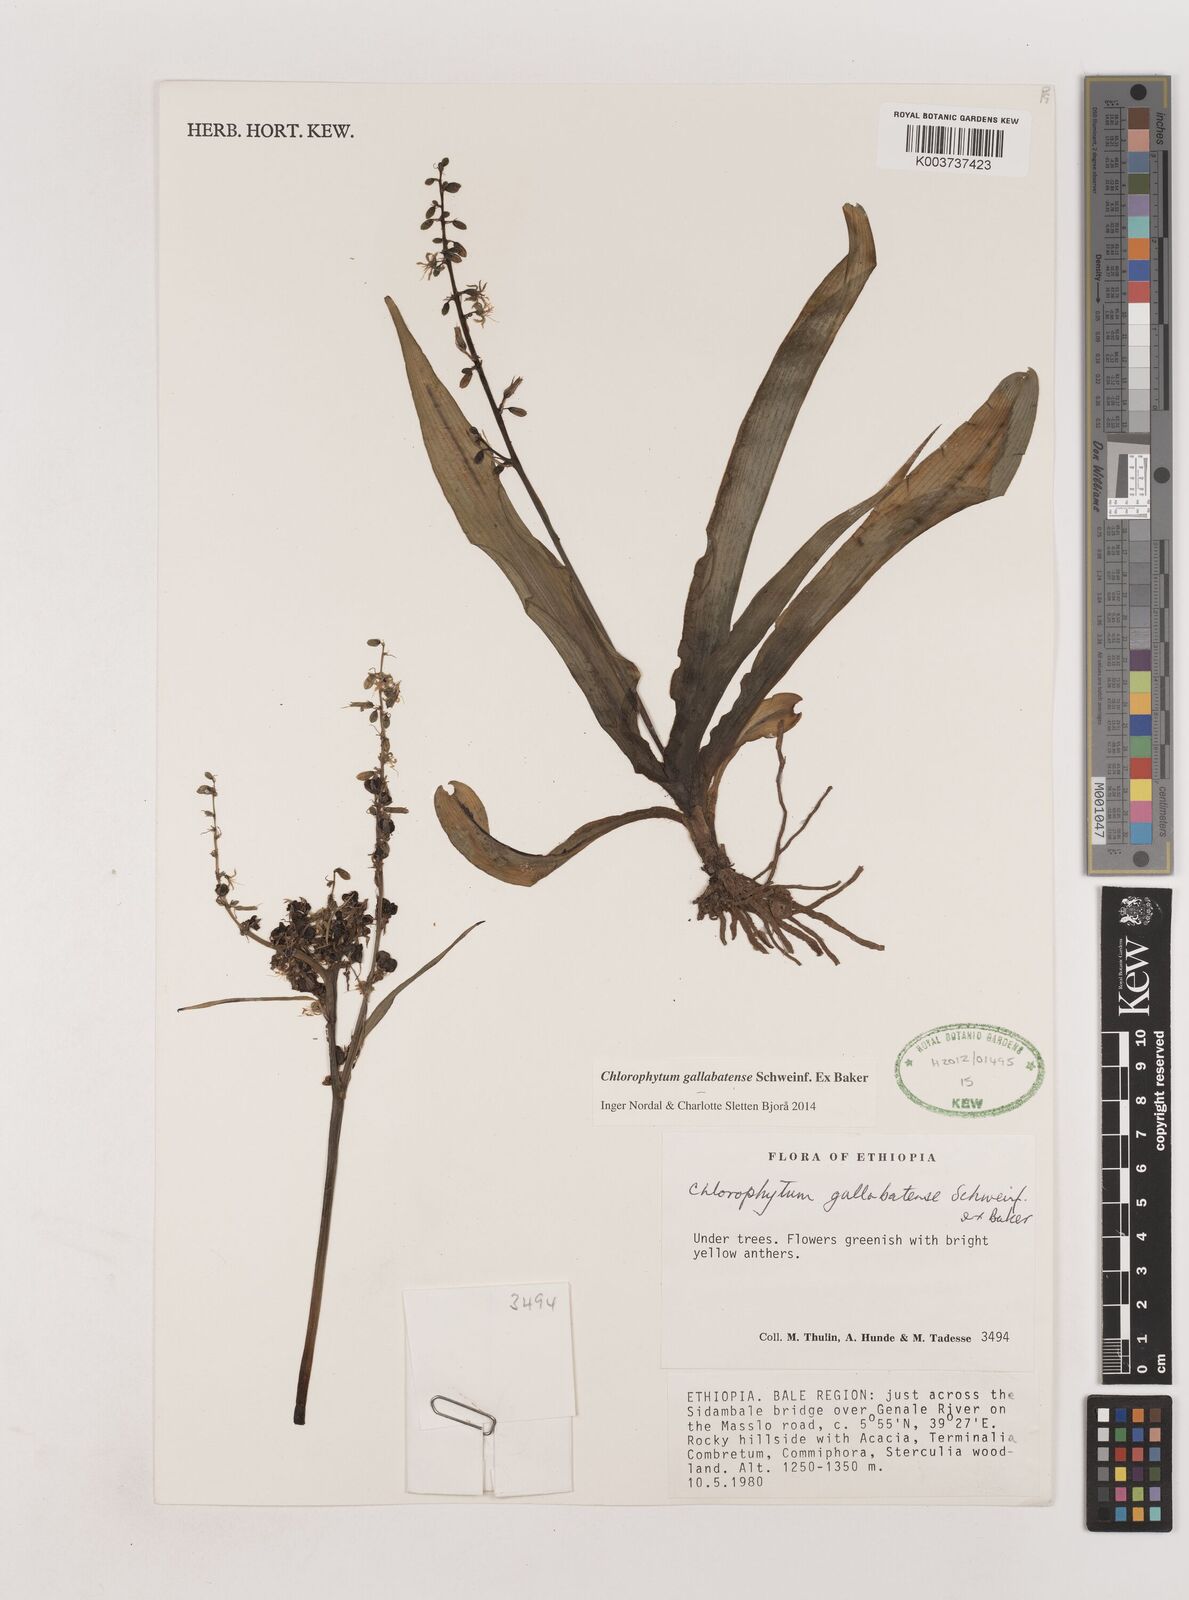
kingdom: Plantae
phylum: Tracheophyta
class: Liliopsida
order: Asparagales
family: Asparagaceae
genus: Chlorophytum
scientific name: Chlorophytum gallabatense
